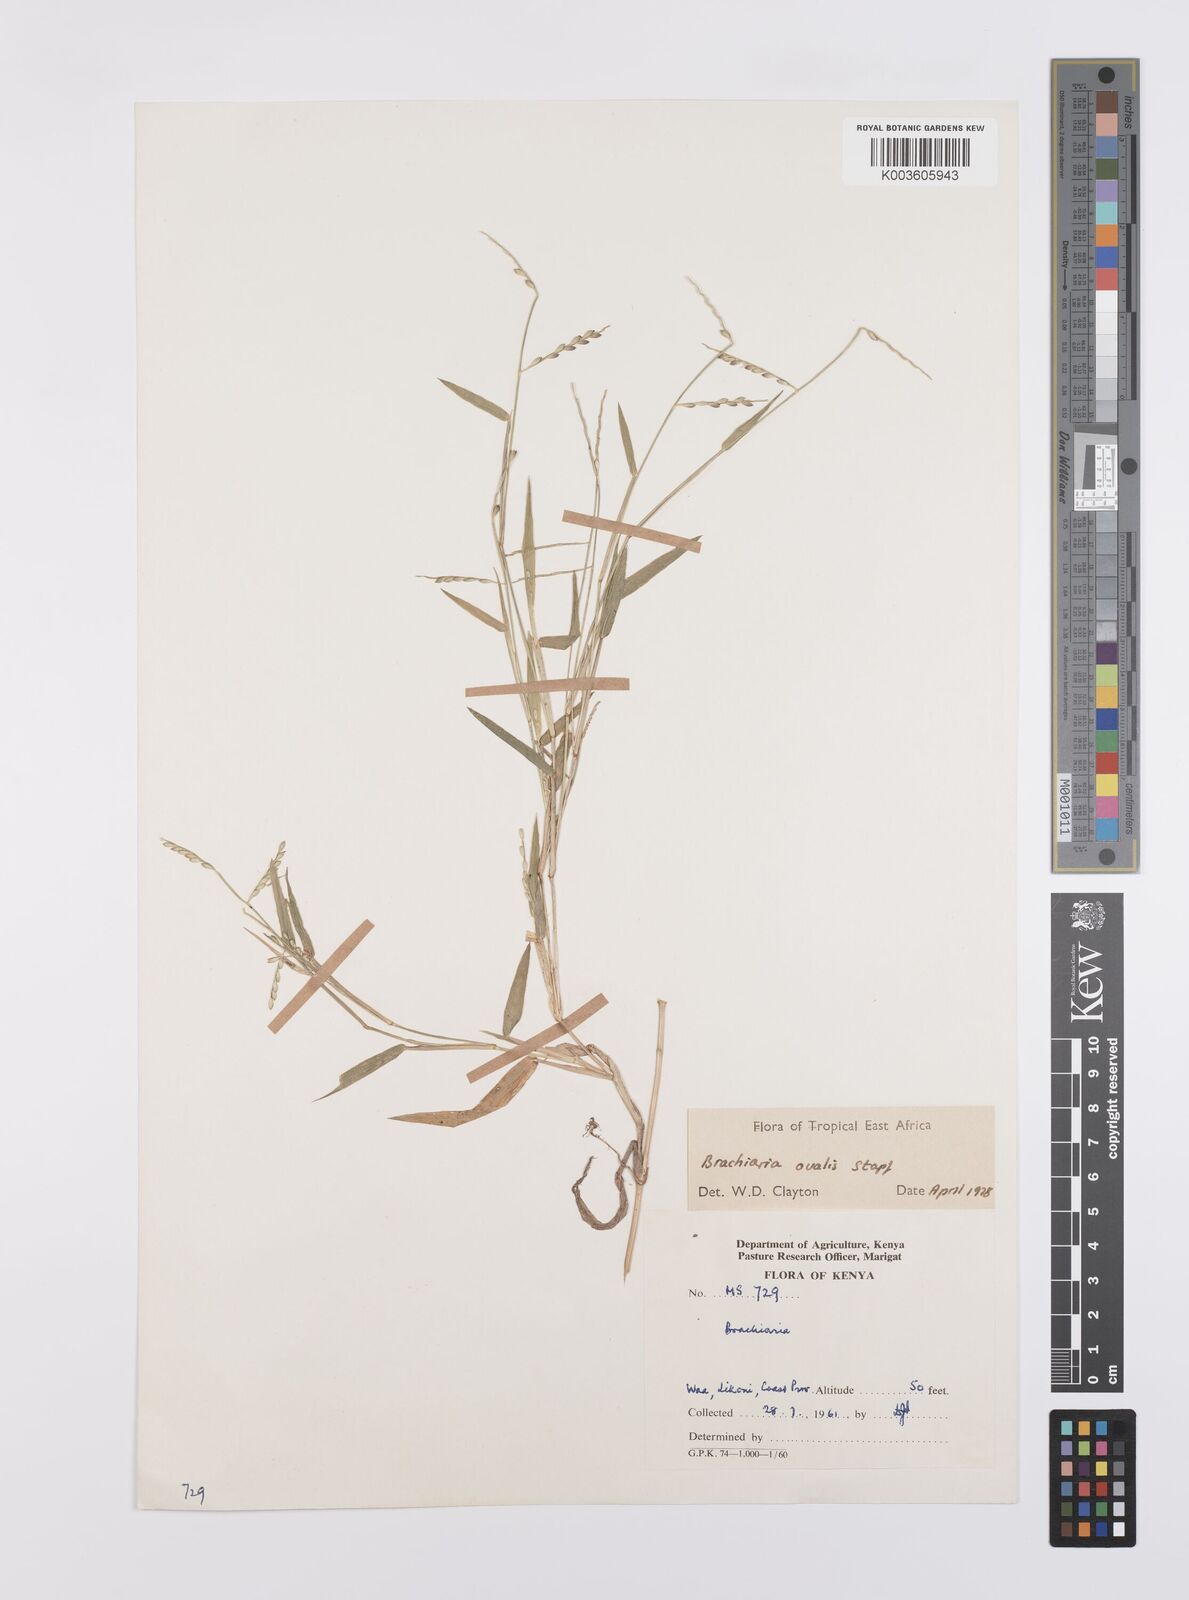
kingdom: Plantae
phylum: Tracheophyta
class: Liliopsida
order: Poales
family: Poaceae
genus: Urochloa
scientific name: Urochloa ovalis
